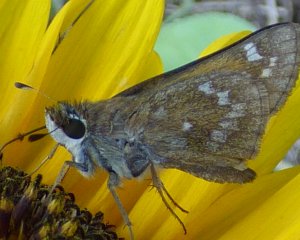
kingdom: Animalia
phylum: Arthropoda
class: Insecta
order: Lepidoptera
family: Hesperiidae
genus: Atalopedes
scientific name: Atalopedes campestris
